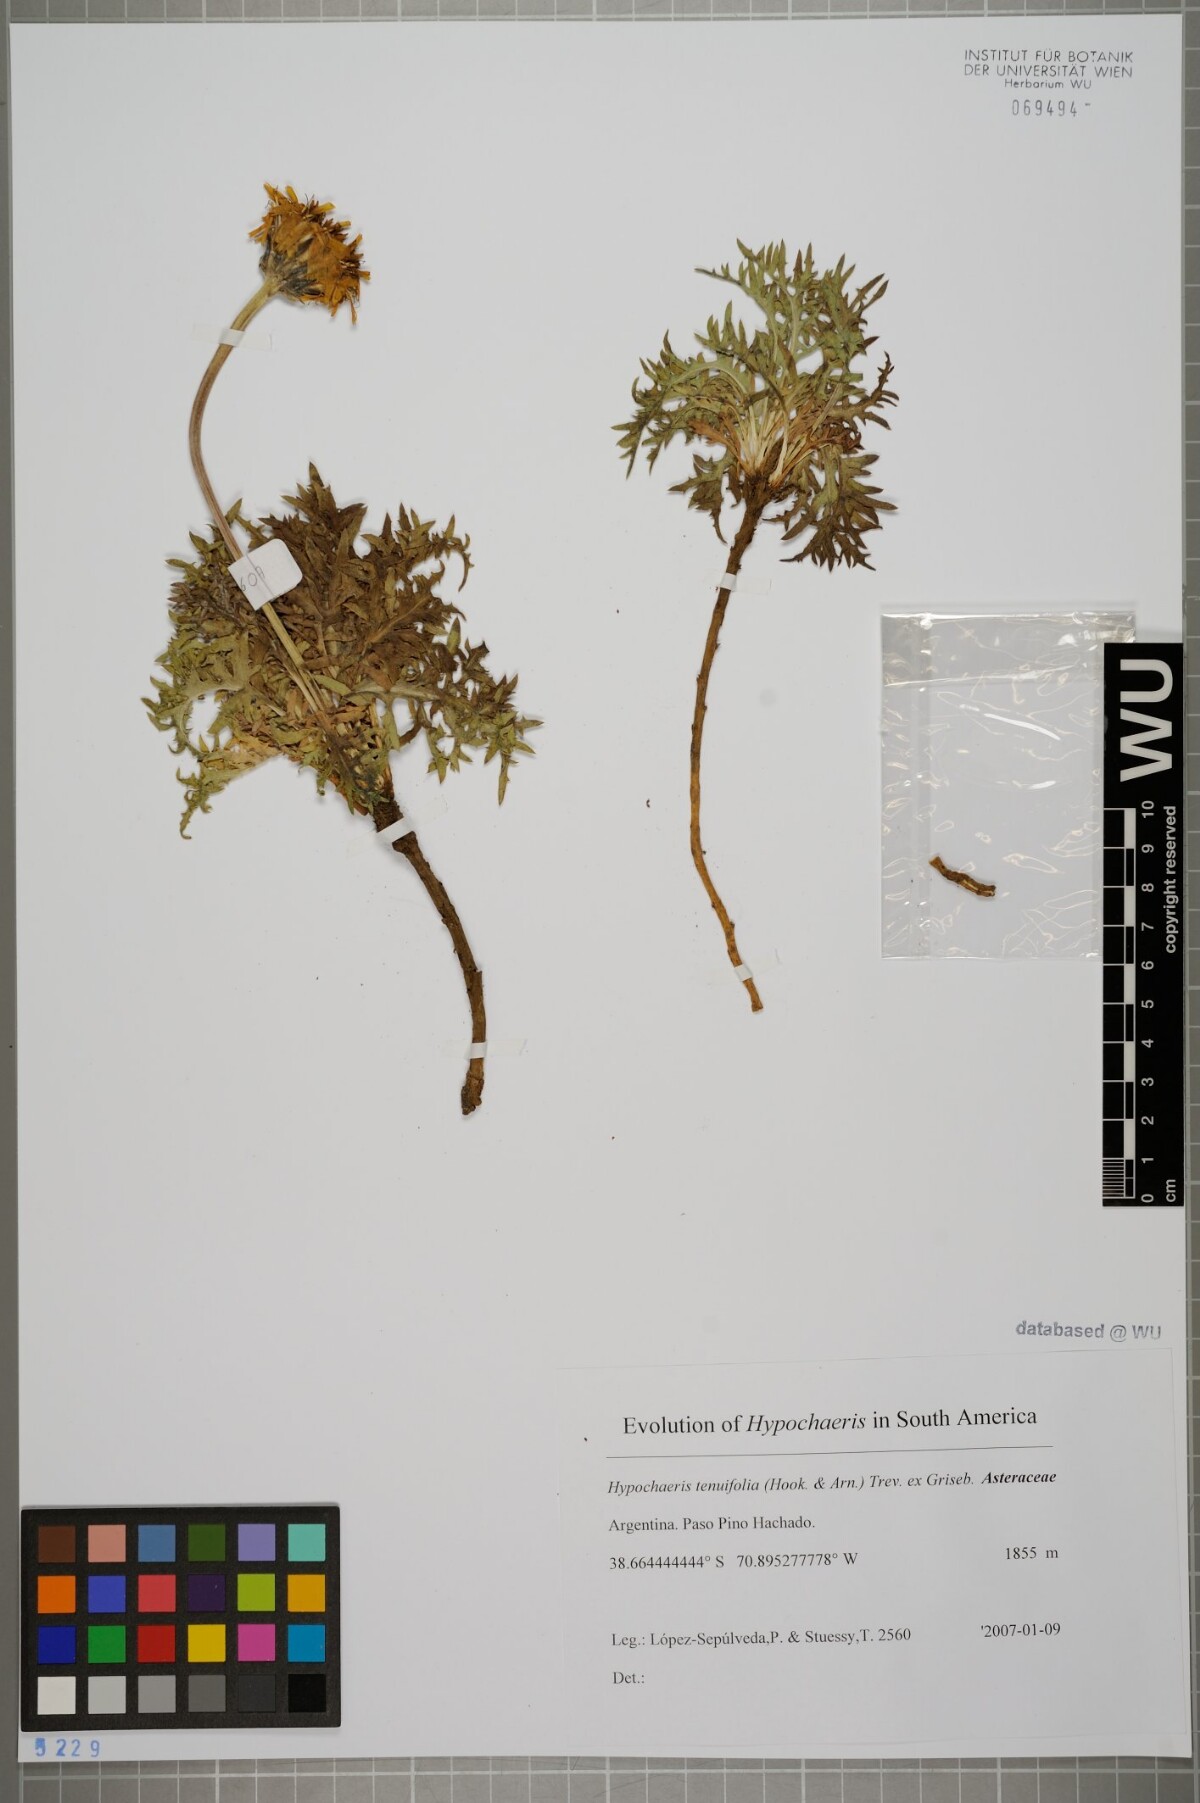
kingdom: Plantae
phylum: Tracheophyta
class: Magnoliopsida
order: Asterales
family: Asteraceae
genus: Hypochaeris
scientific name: Hypochaeris tenuifolia
